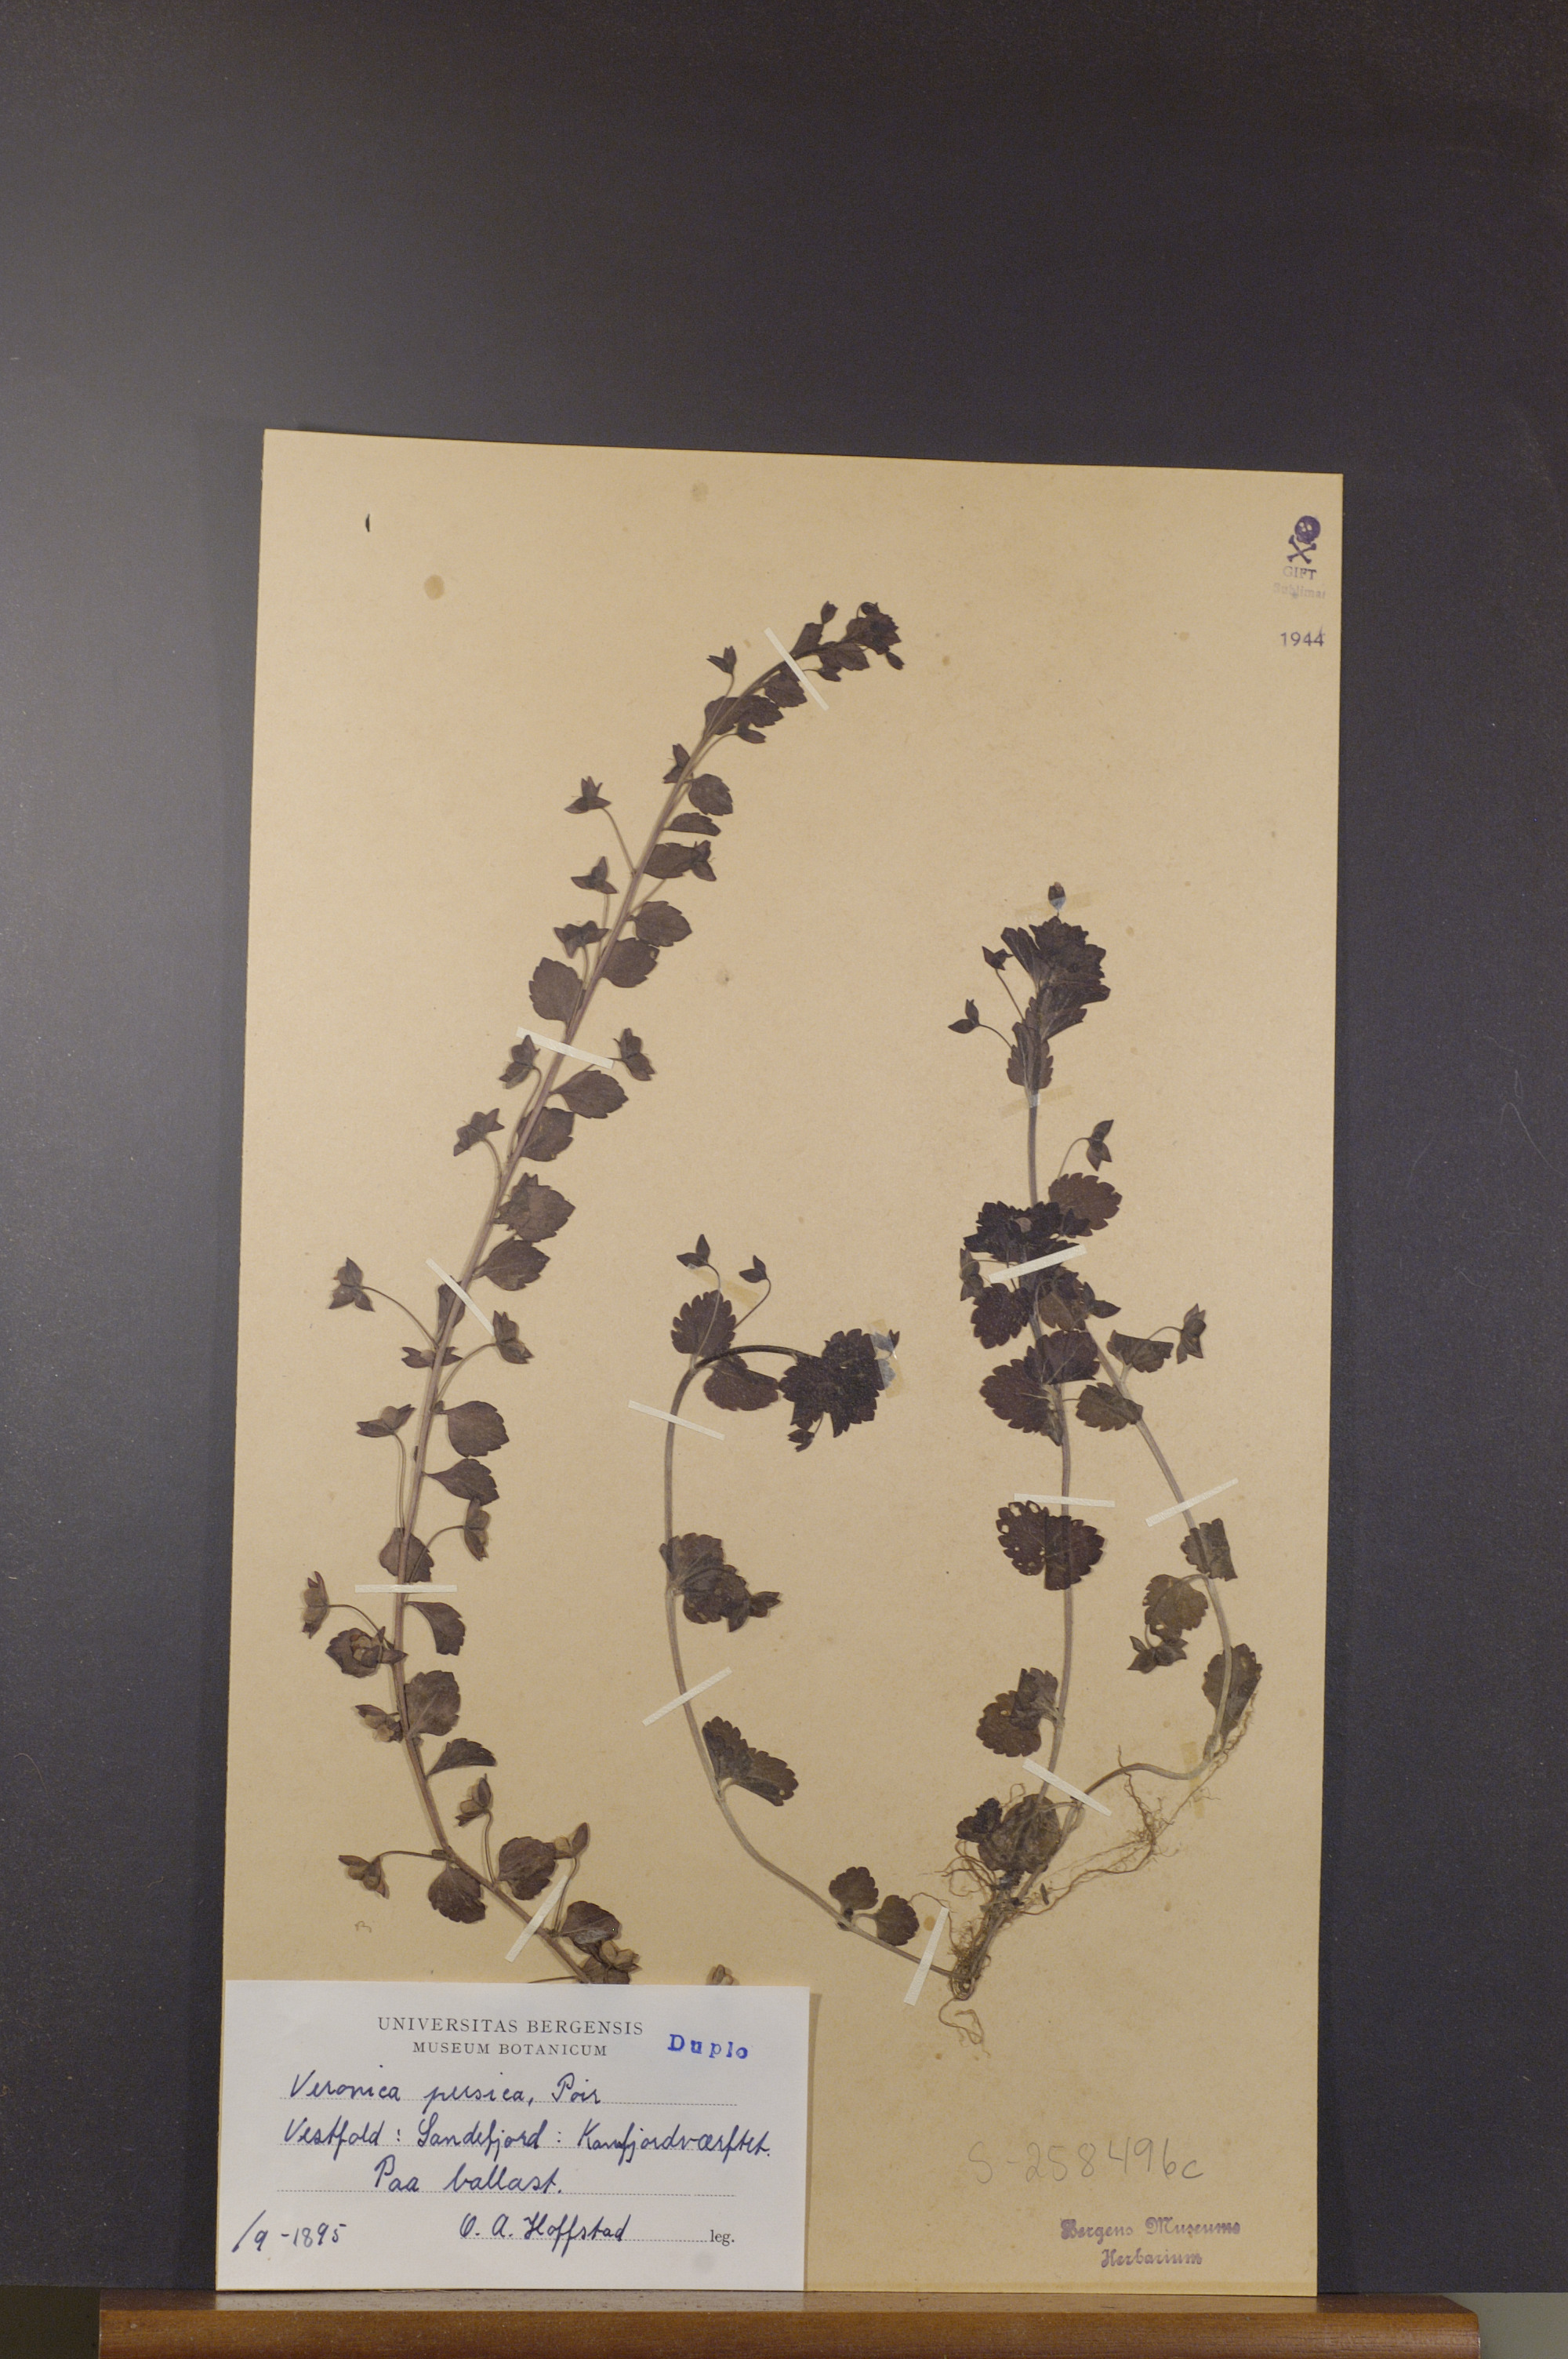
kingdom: Plantae
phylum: Tracheophyta
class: Magnoliopsida
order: Lamiales
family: Plantaginaceae
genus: Veronica
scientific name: Veronica persica
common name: Common field-speedwell
